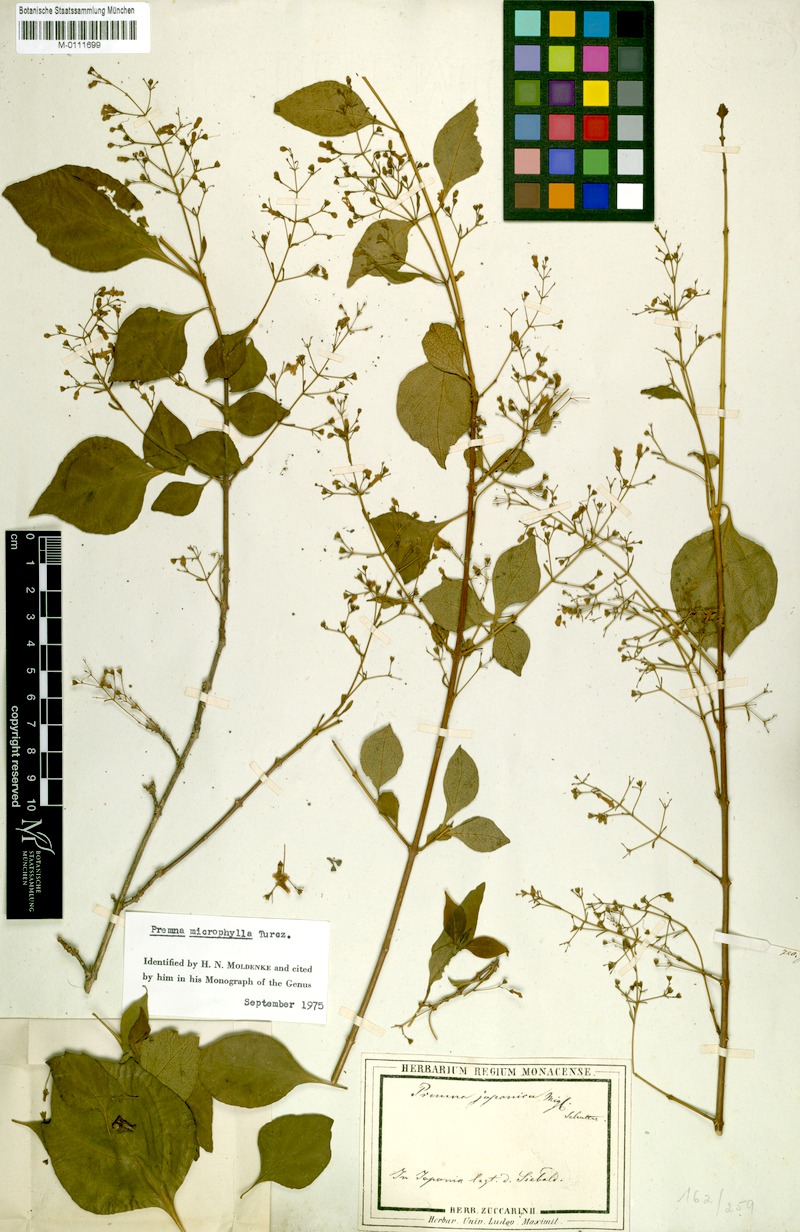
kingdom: Plantae
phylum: Tracheophyta
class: Magnoliopsida
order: Lamiales
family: Lamiaceae
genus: Premna
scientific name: Premna microphylla
